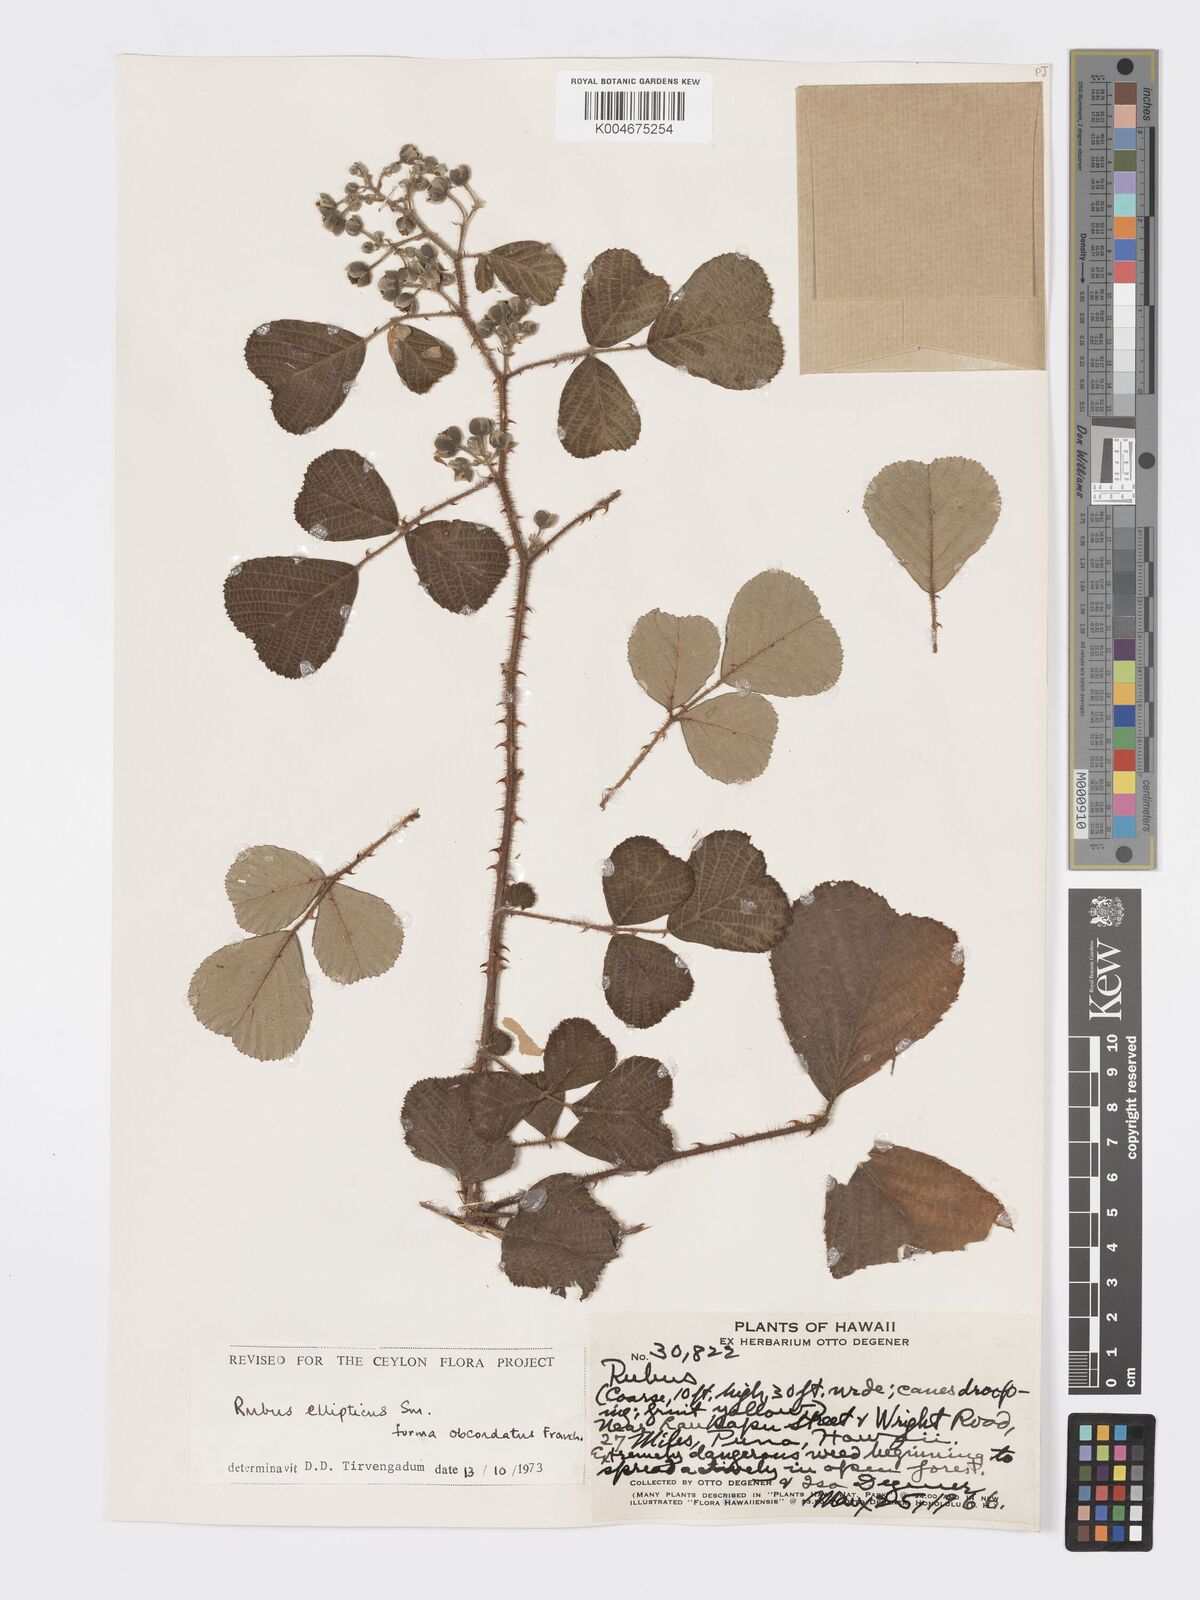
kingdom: Plantae
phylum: Tracheophyta
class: Magnoliopsida
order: Rosales
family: Rosaceae
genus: Rubus
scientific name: Rubus ellipticus
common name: Cheeseberry
